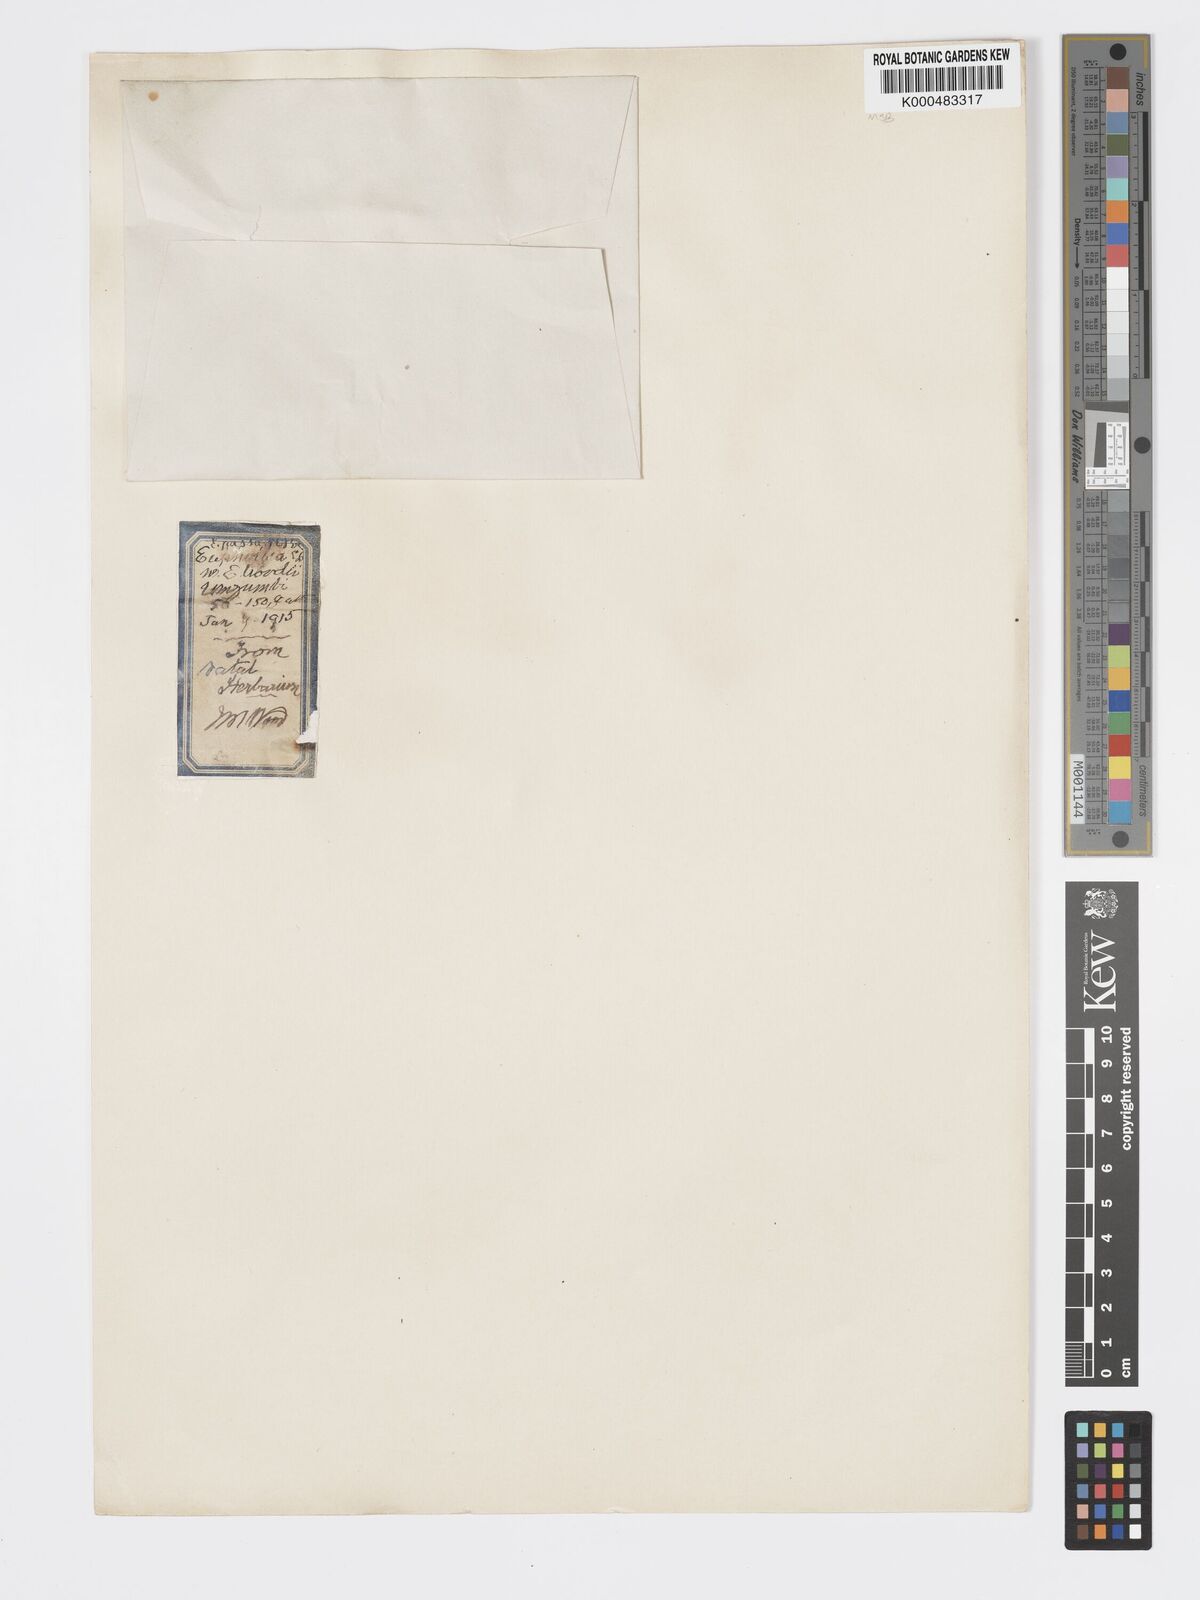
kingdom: Plantae
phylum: Tracheophyta
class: Magnoliopsida
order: Malpighiales
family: Euphorbiaceae
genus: Euphorbia
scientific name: Euphorbia woodii
